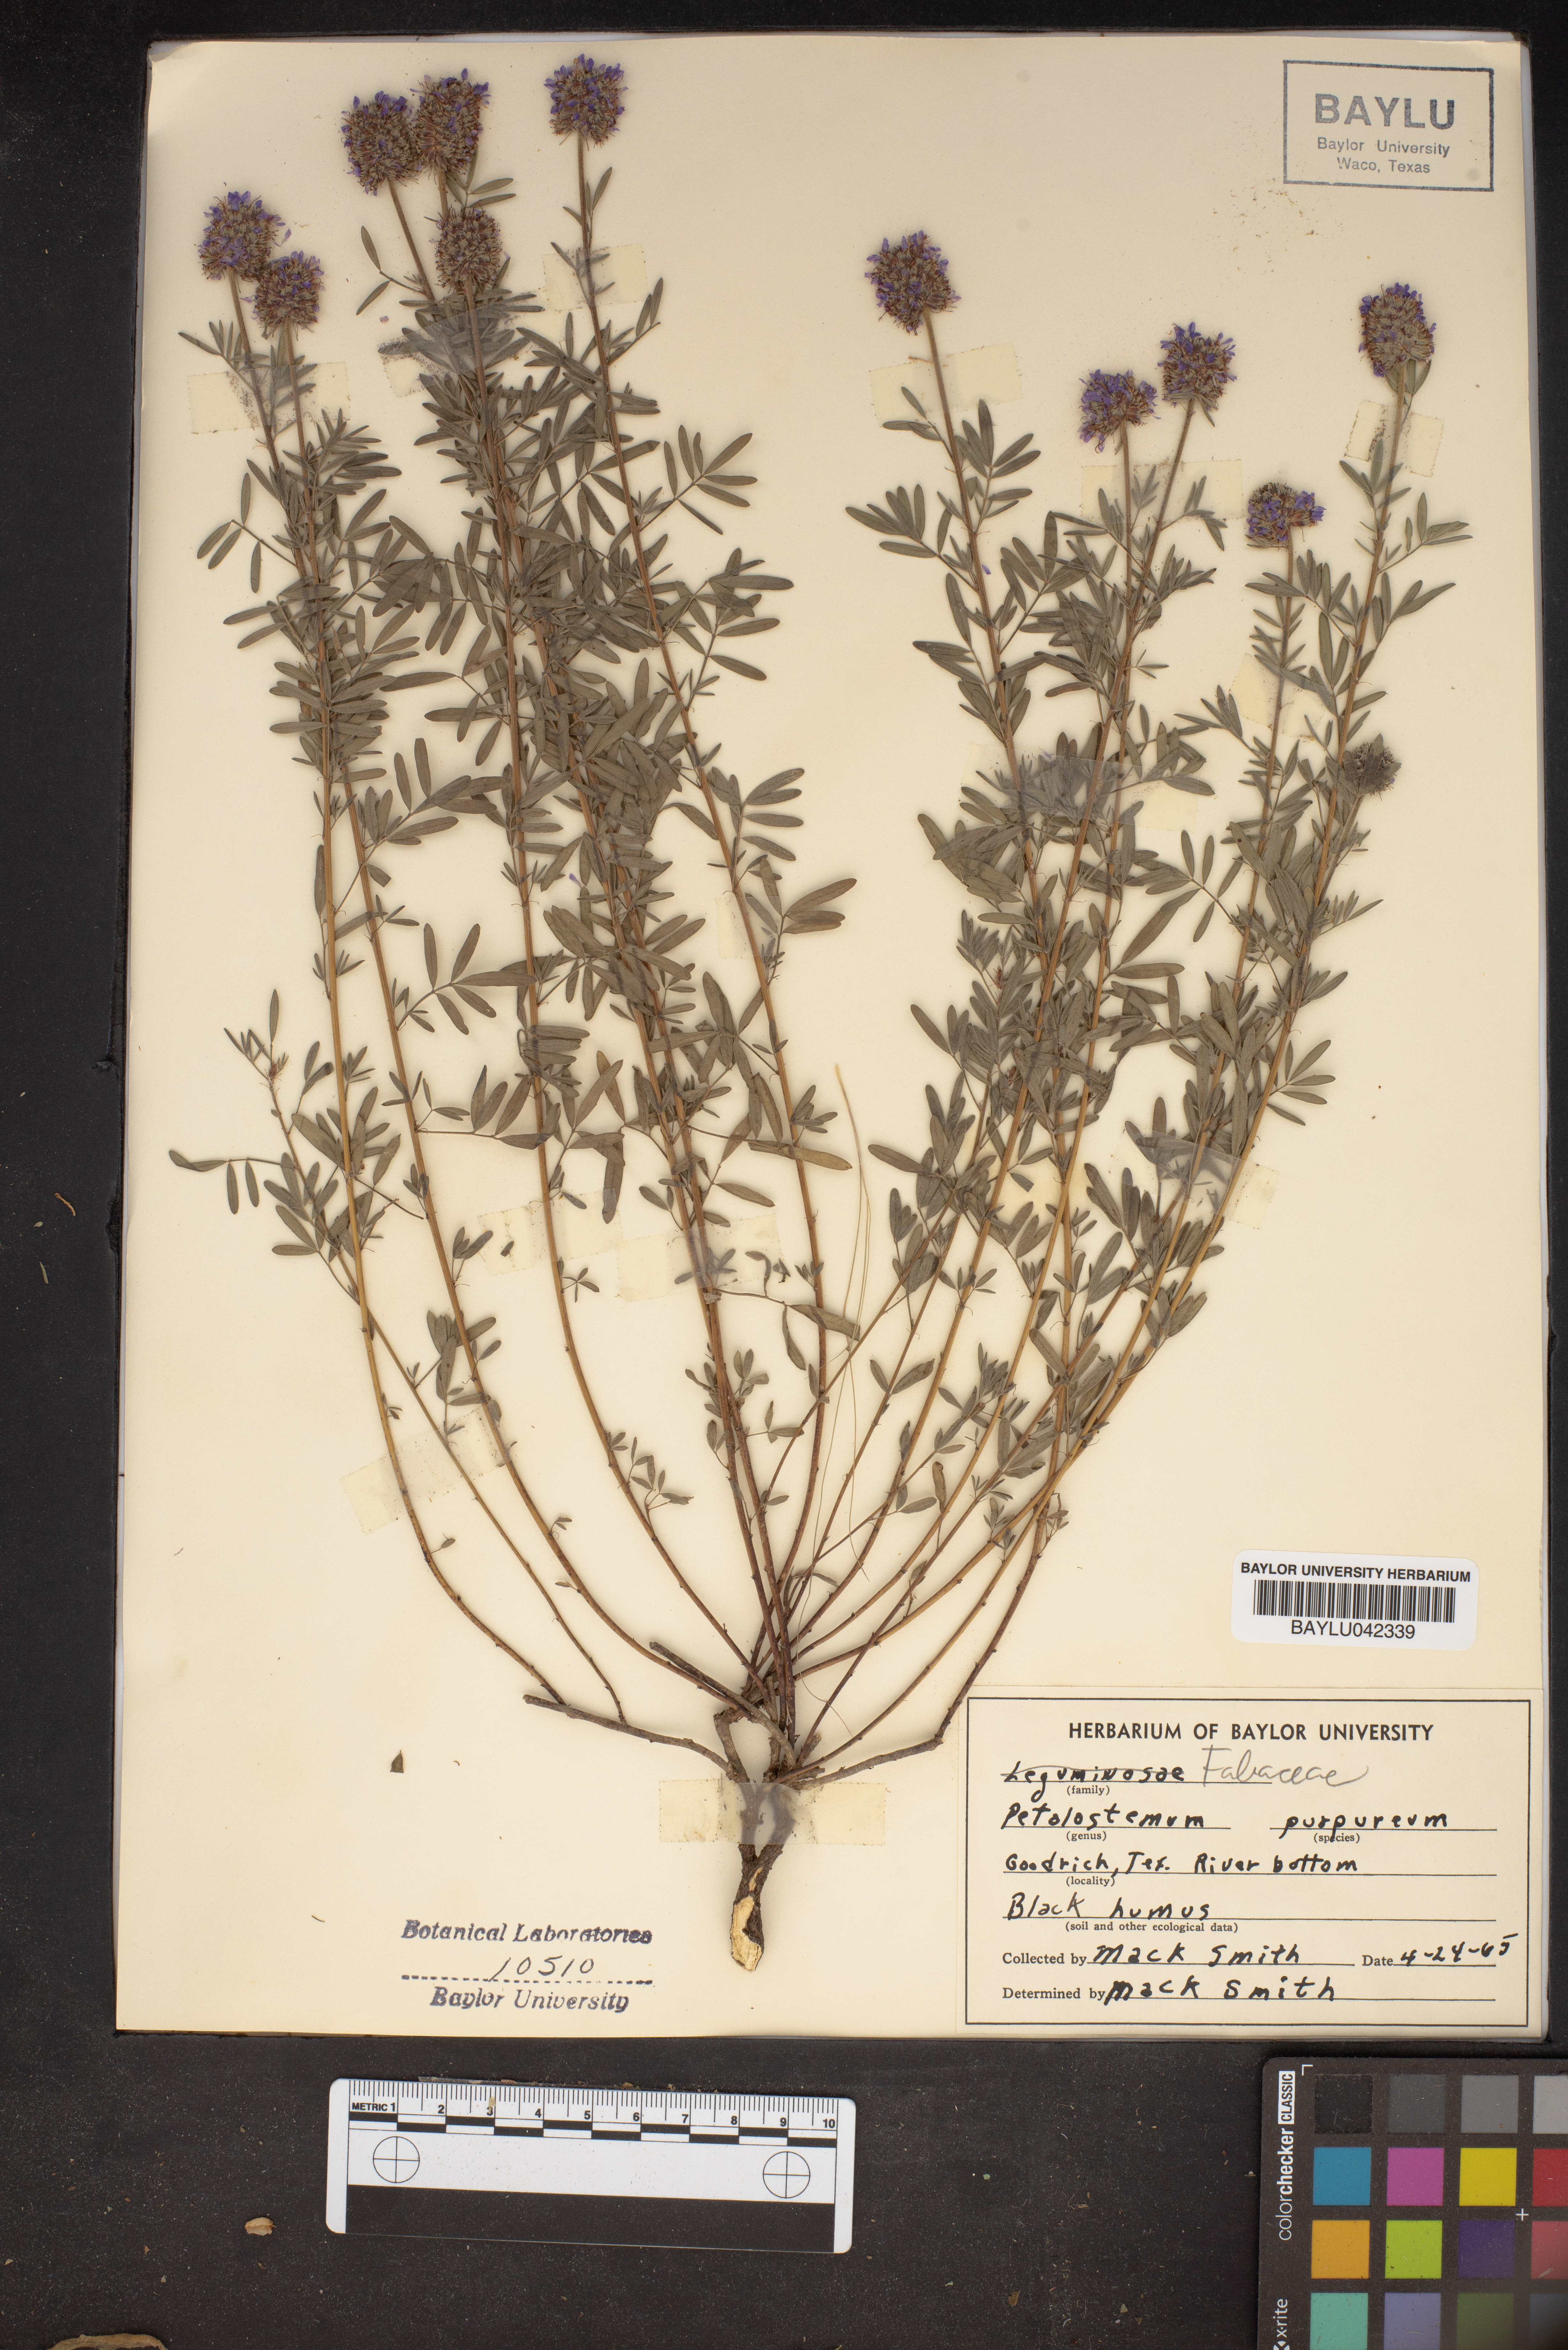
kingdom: Plantae
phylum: Tracheophyta
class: Magnoliopsida
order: Fabales
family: Fabaceae
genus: Dalea
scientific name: Dalea purpurea
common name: Purple prairie-clover
